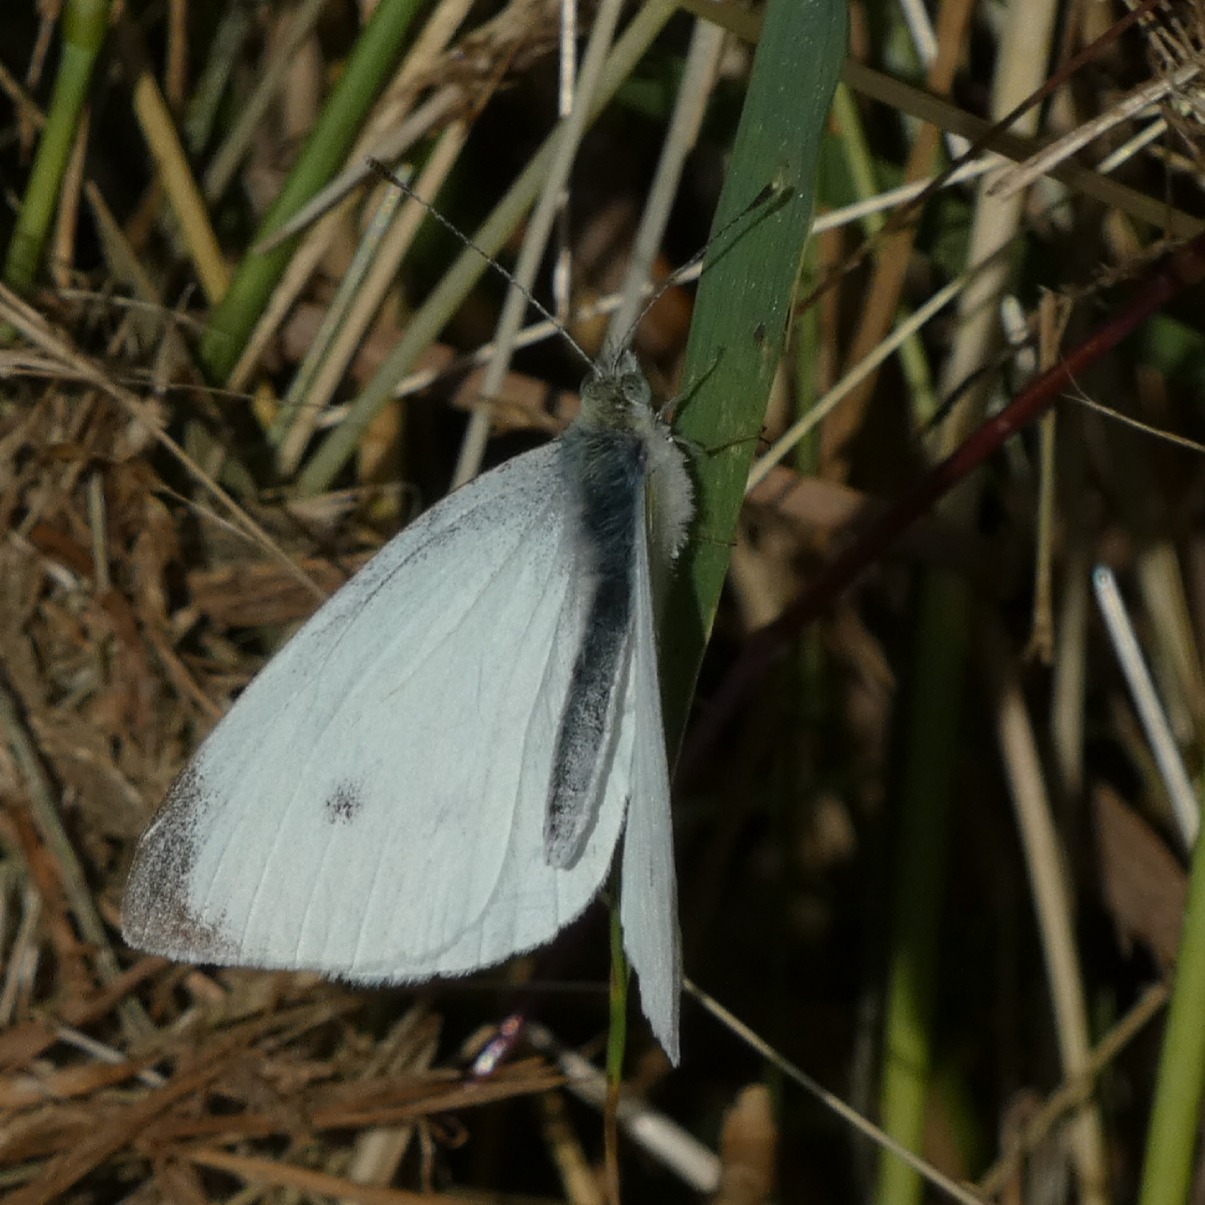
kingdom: Animalia
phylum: Arthropoda
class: Insecta
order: Lepidoptera
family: Pieridae
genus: Pieris
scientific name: Pieris rapae
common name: Lille kålsommerfugl
